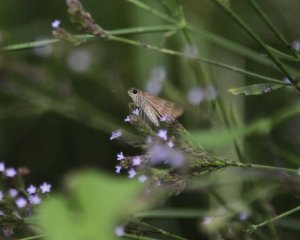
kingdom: Animalia
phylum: Arthropoda
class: Insecta
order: Lepidoptera
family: Hesperiidae
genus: Panoquina
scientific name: Panoquina ocola
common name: Ocola Skipper
